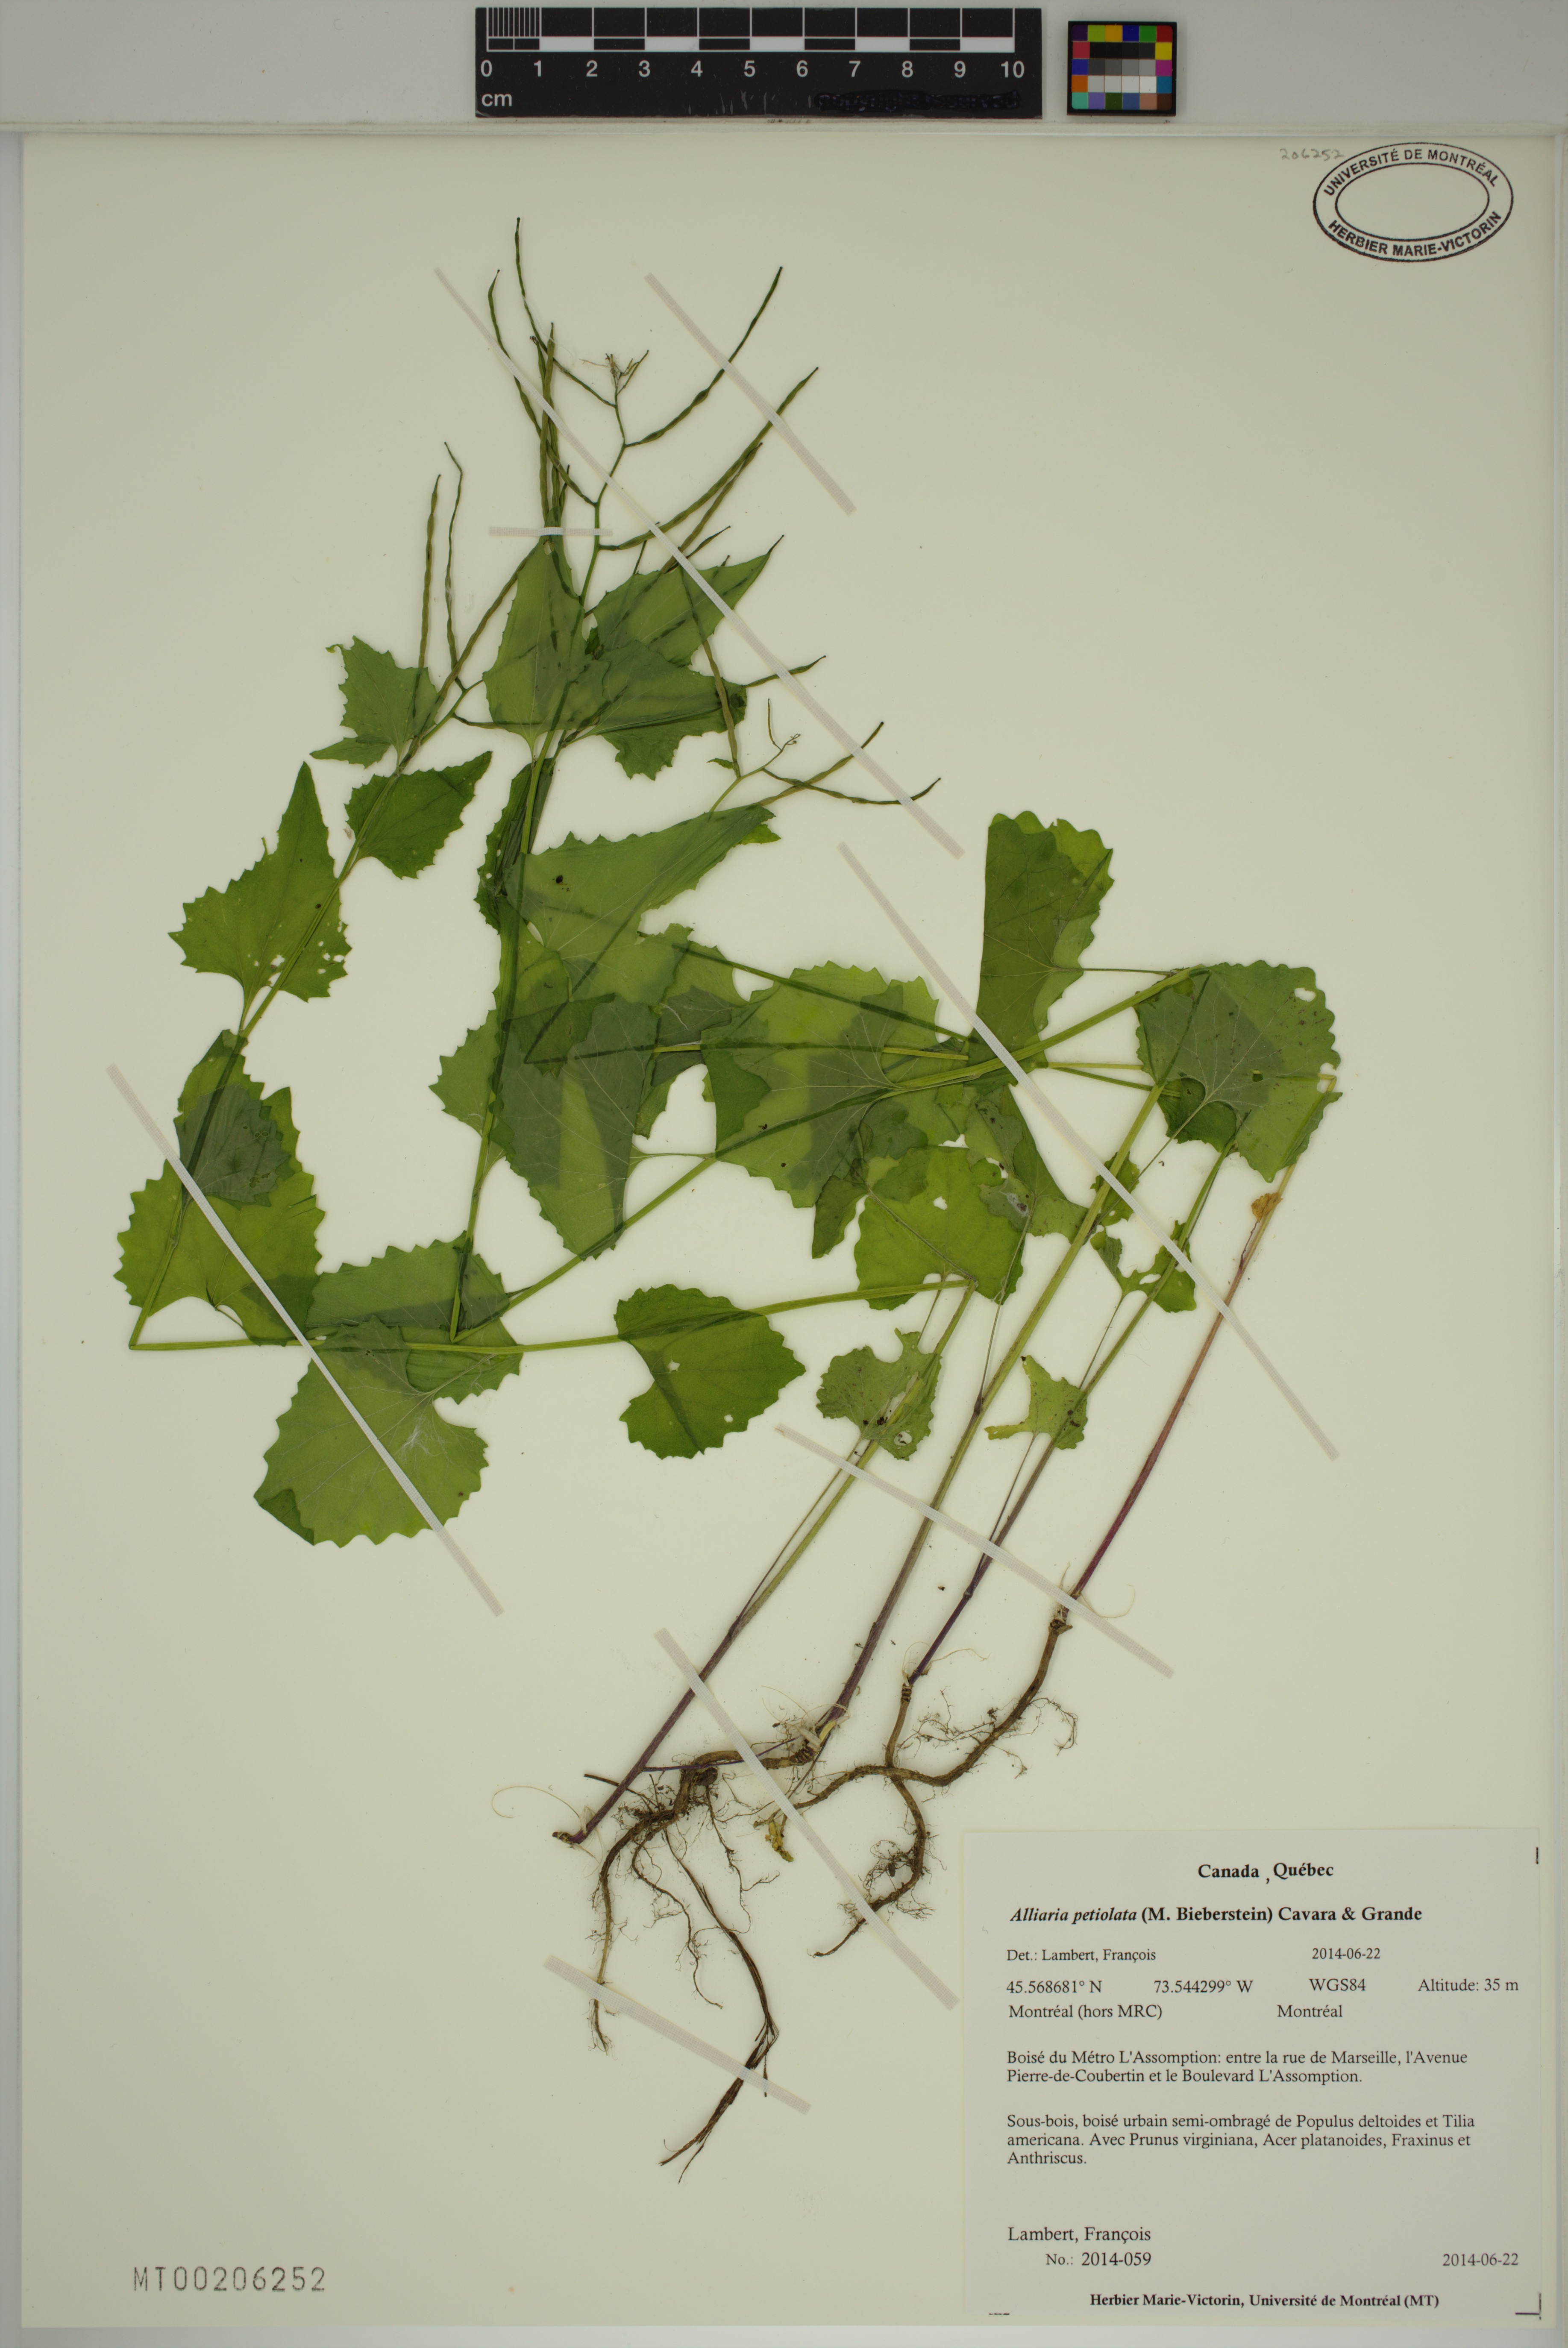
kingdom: Plantae
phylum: Tracheophyta
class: Magnoliopsida
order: Brassicales
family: Brassicaceae
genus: Alliaria
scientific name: Alliaria petiolata
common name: Garlic mustard
